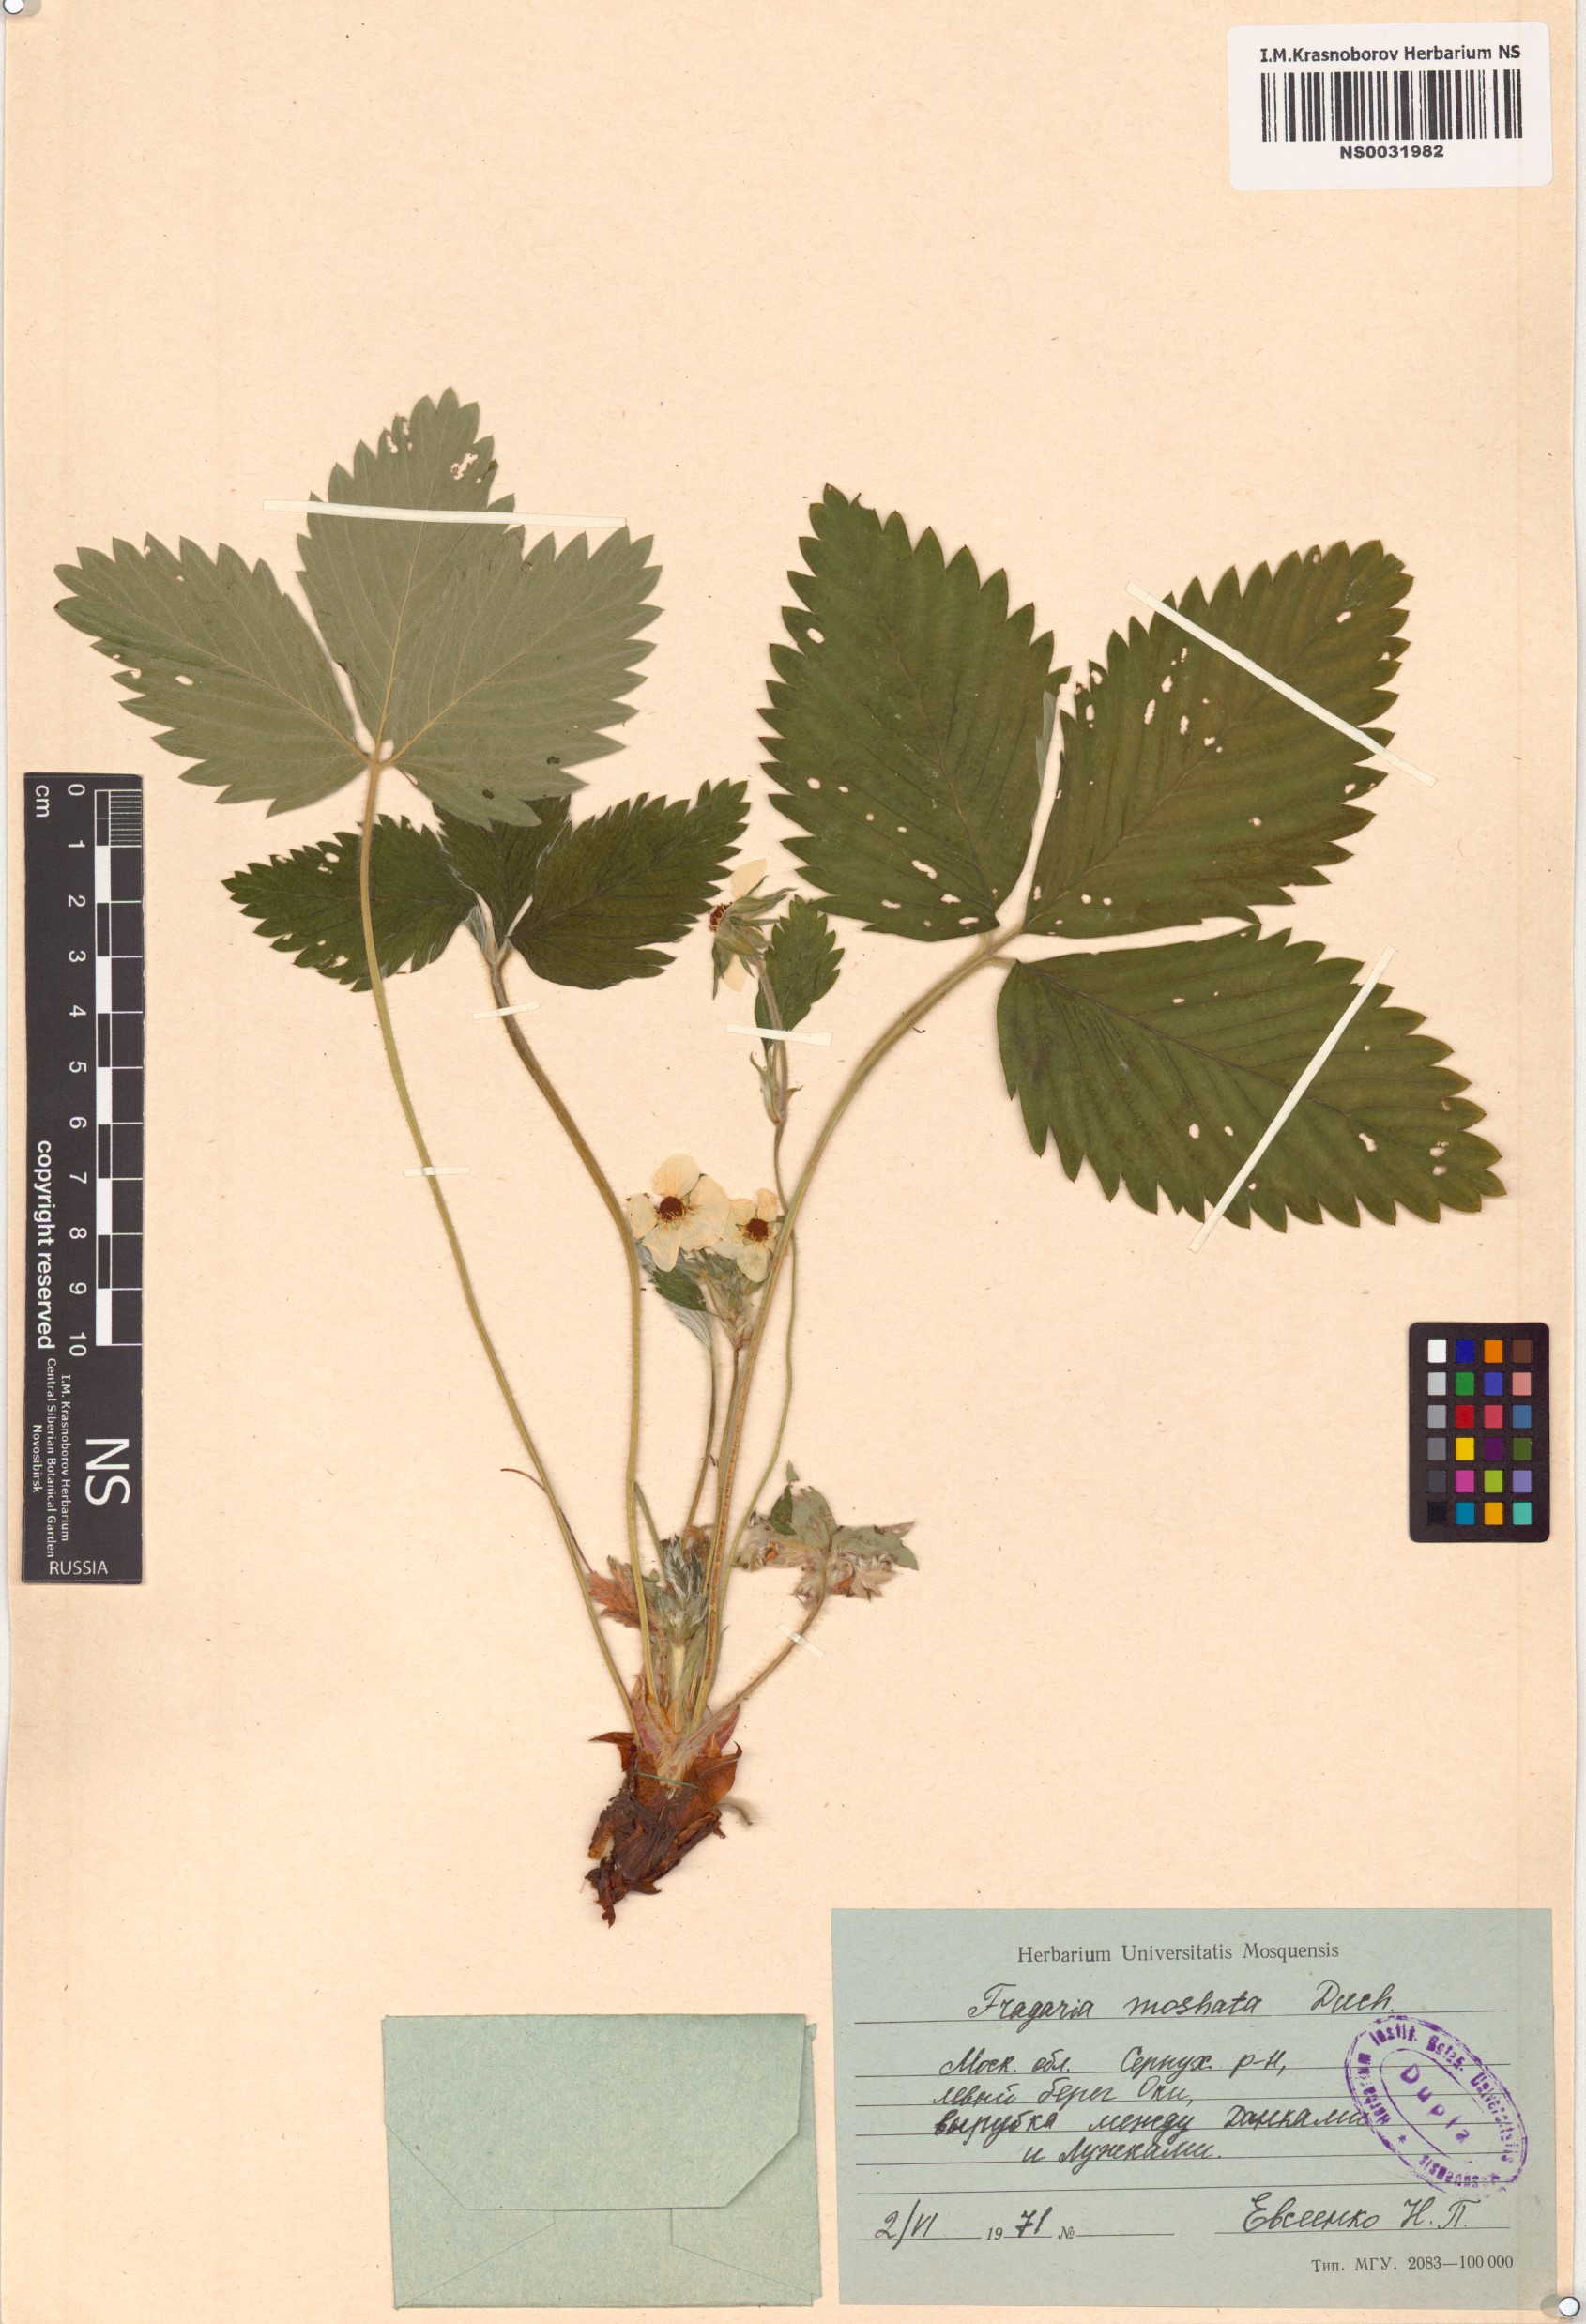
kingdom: Plantae
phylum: Tracheophyta
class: Magnoliopsida
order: Rosales
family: Rosaceae
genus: Fragaria
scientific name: Fragaria moschata
